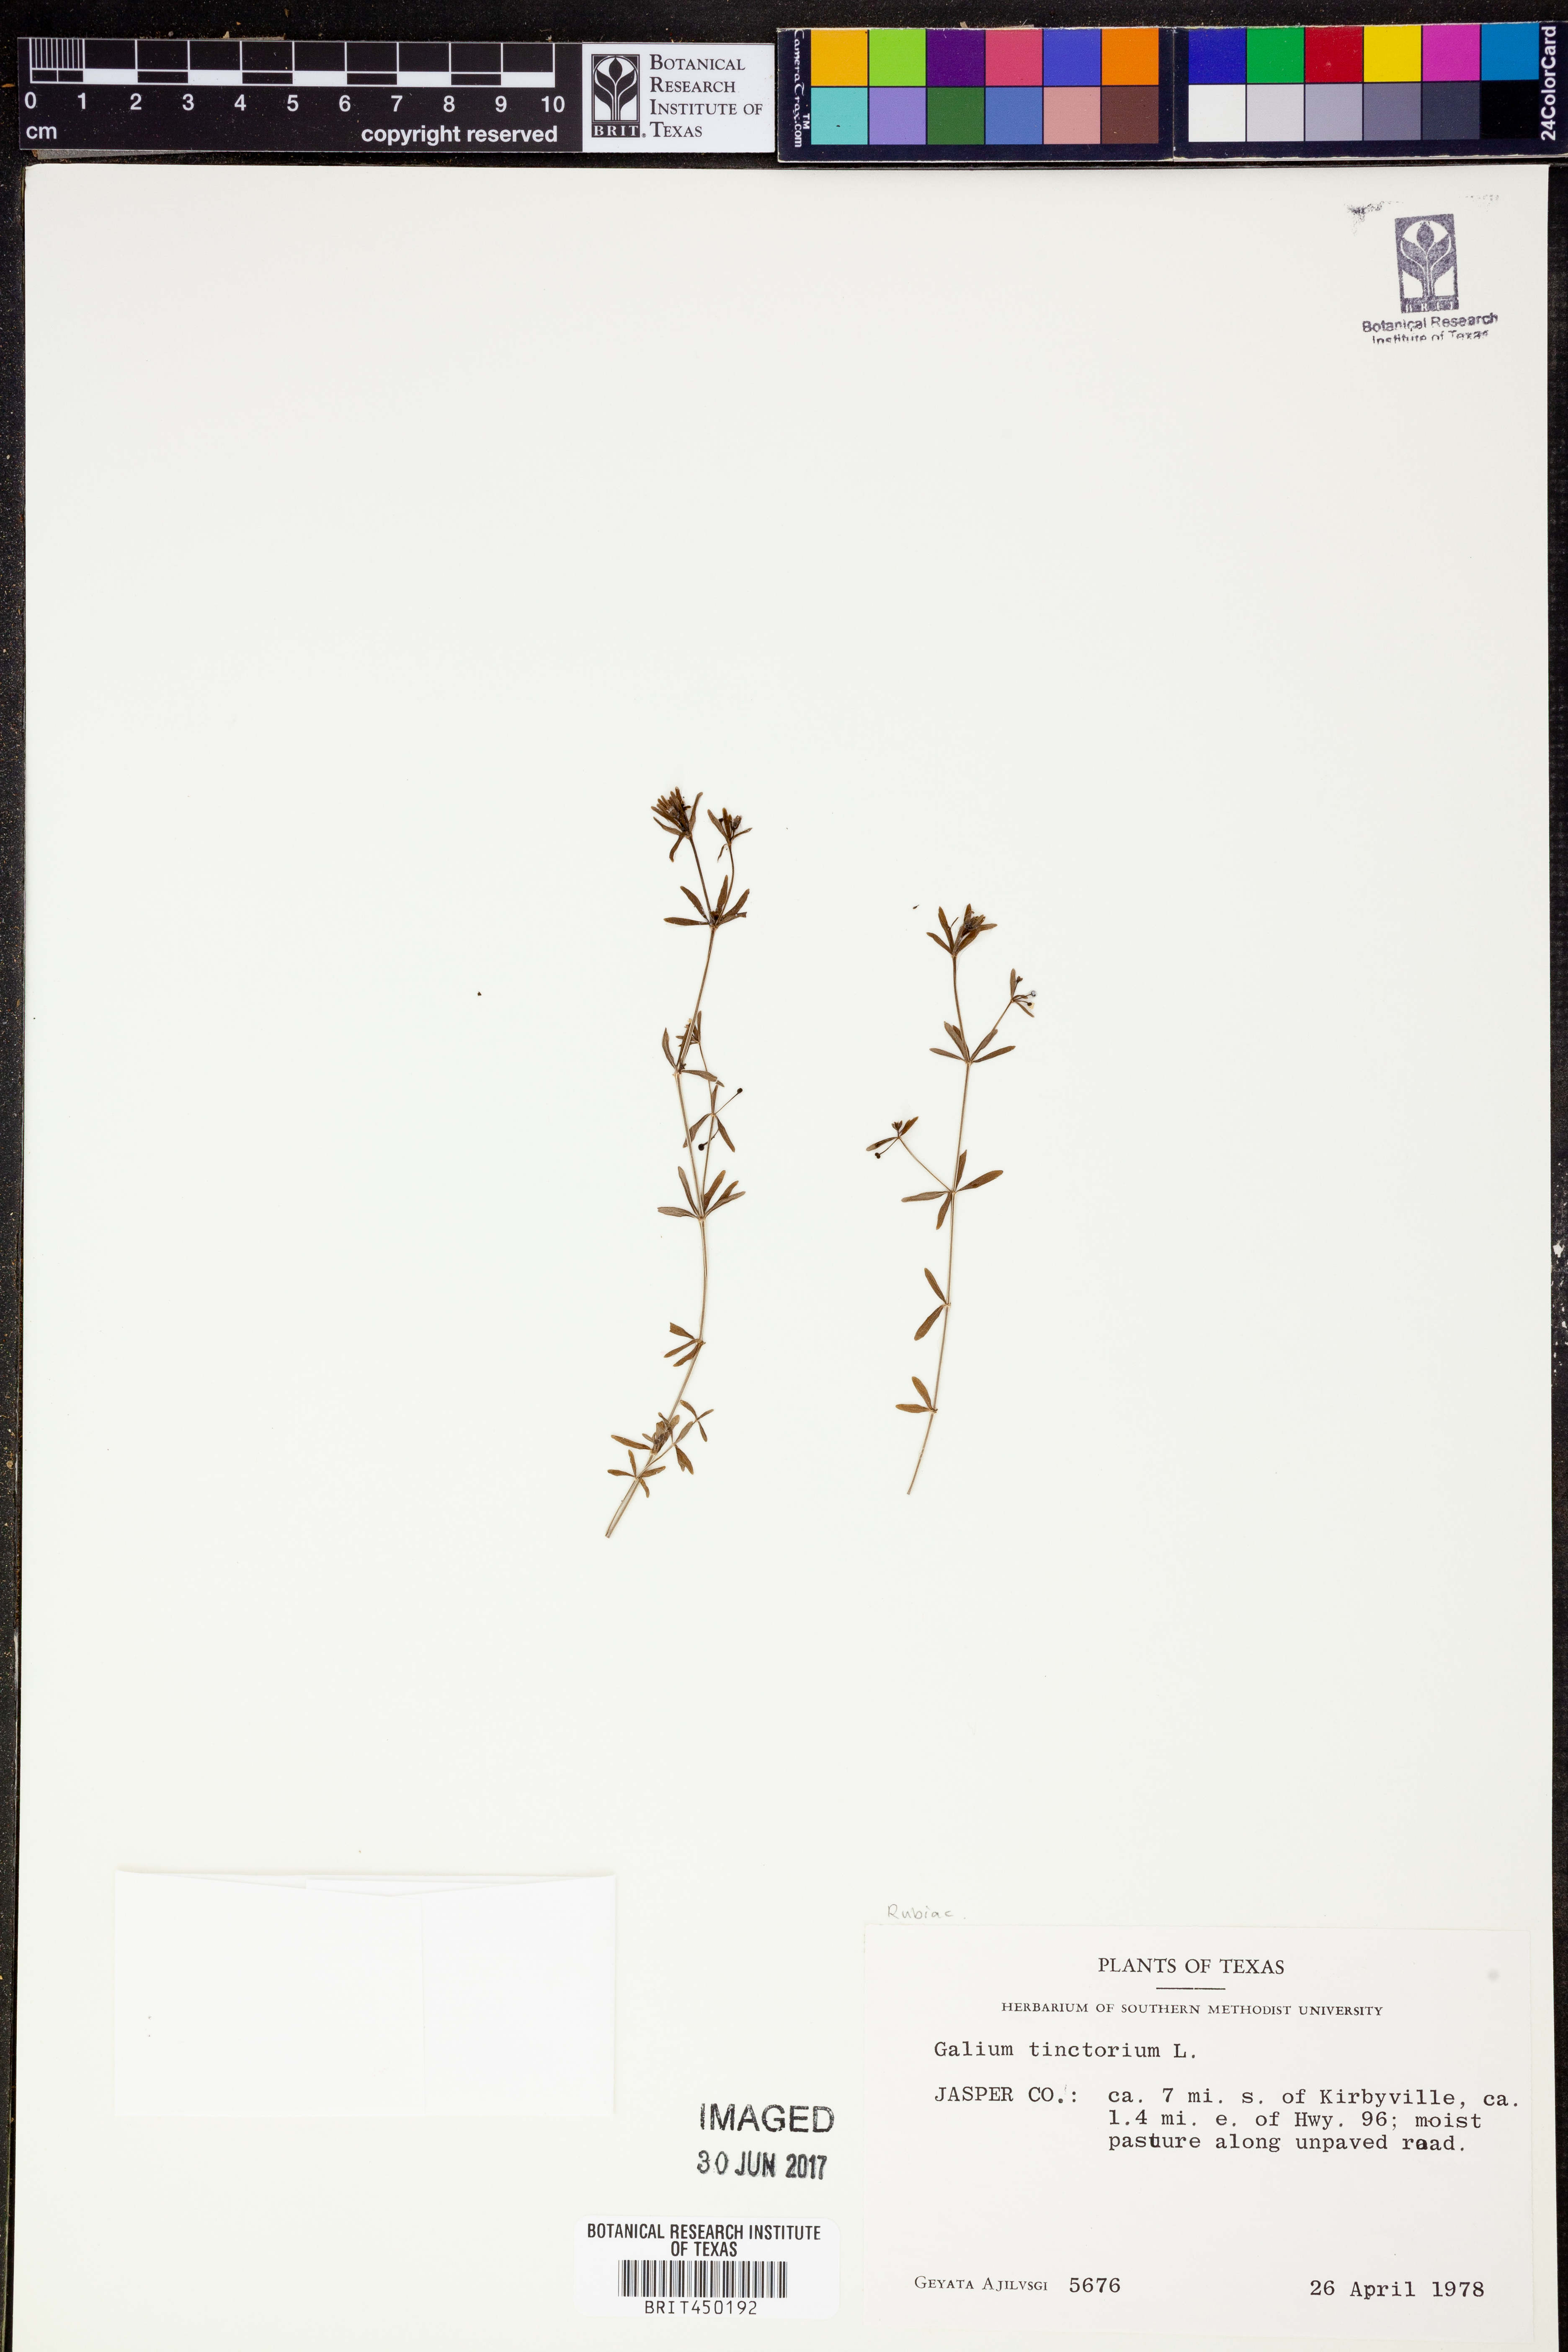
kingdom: Plantae
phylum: Tracheophyta
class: Magnoliopsida
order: Gentianales
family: Rubiaceae
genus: Asperula
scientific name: Asperula tinctoria
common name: Dyer's woodruff
